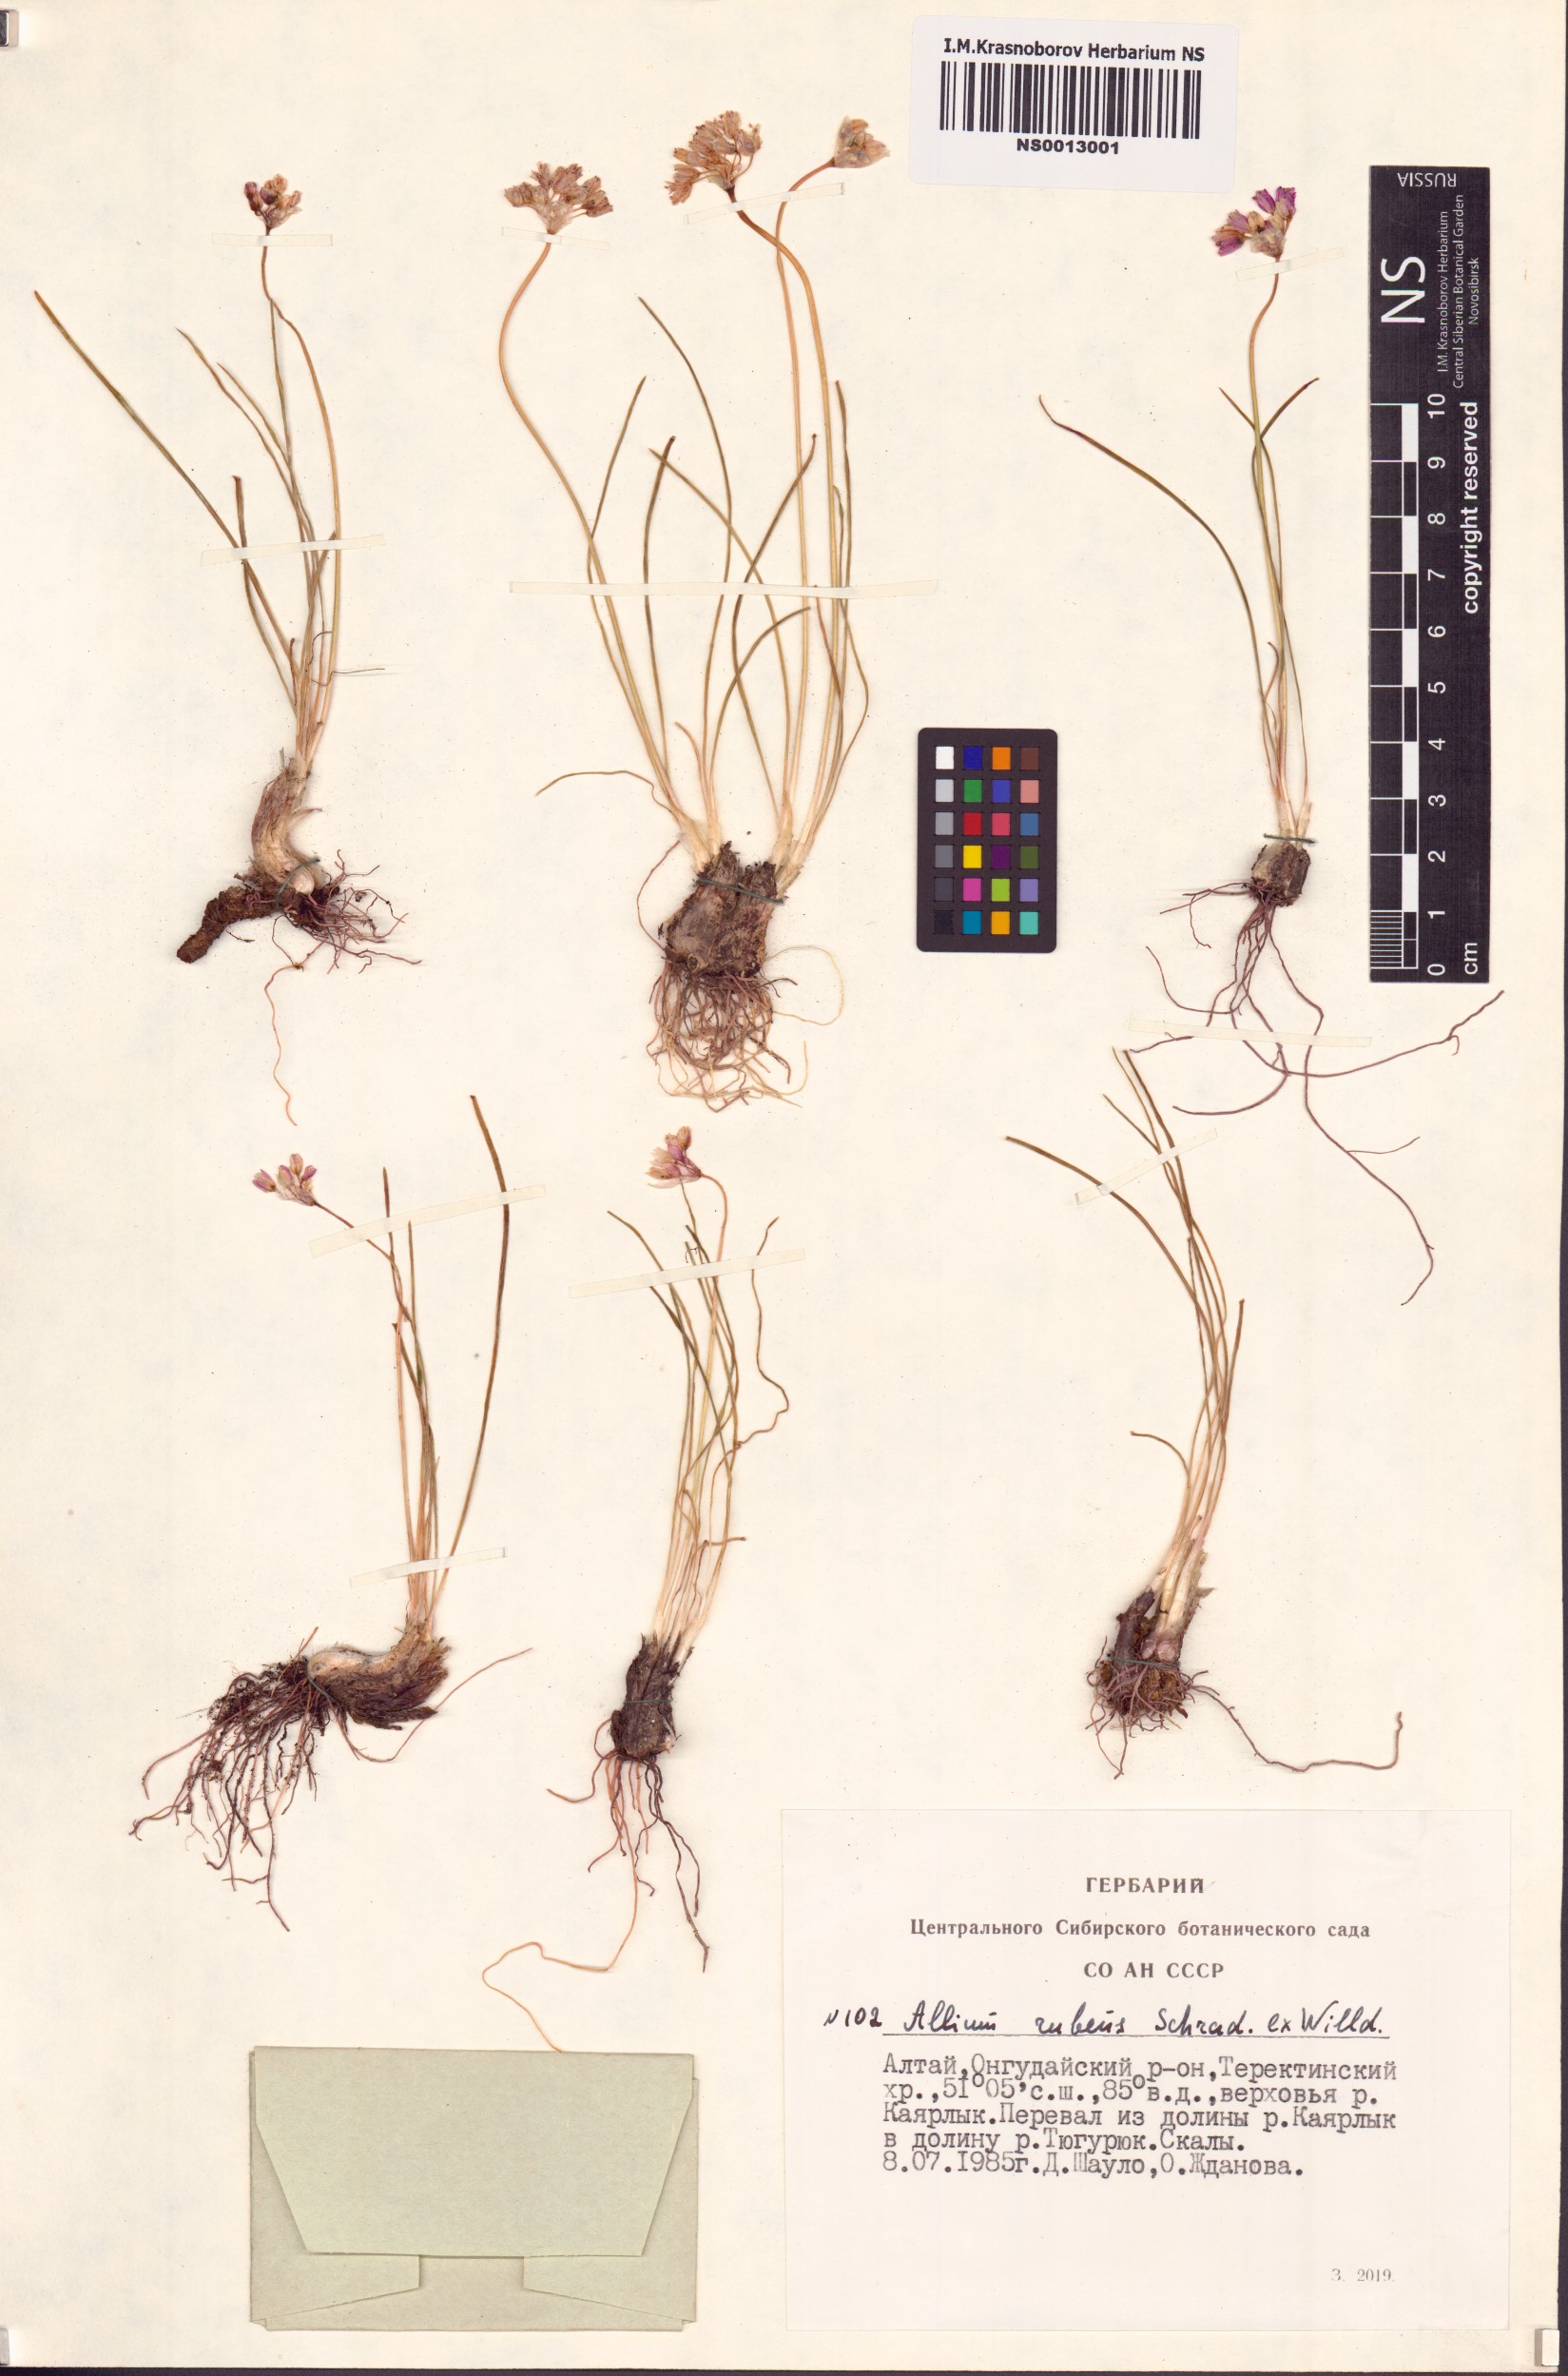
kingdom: Plantae
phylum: Tracheophyta
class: Liliopsida
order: Asparagales
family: Amaryllidaceae
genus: Allium
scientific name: Allium rubens
